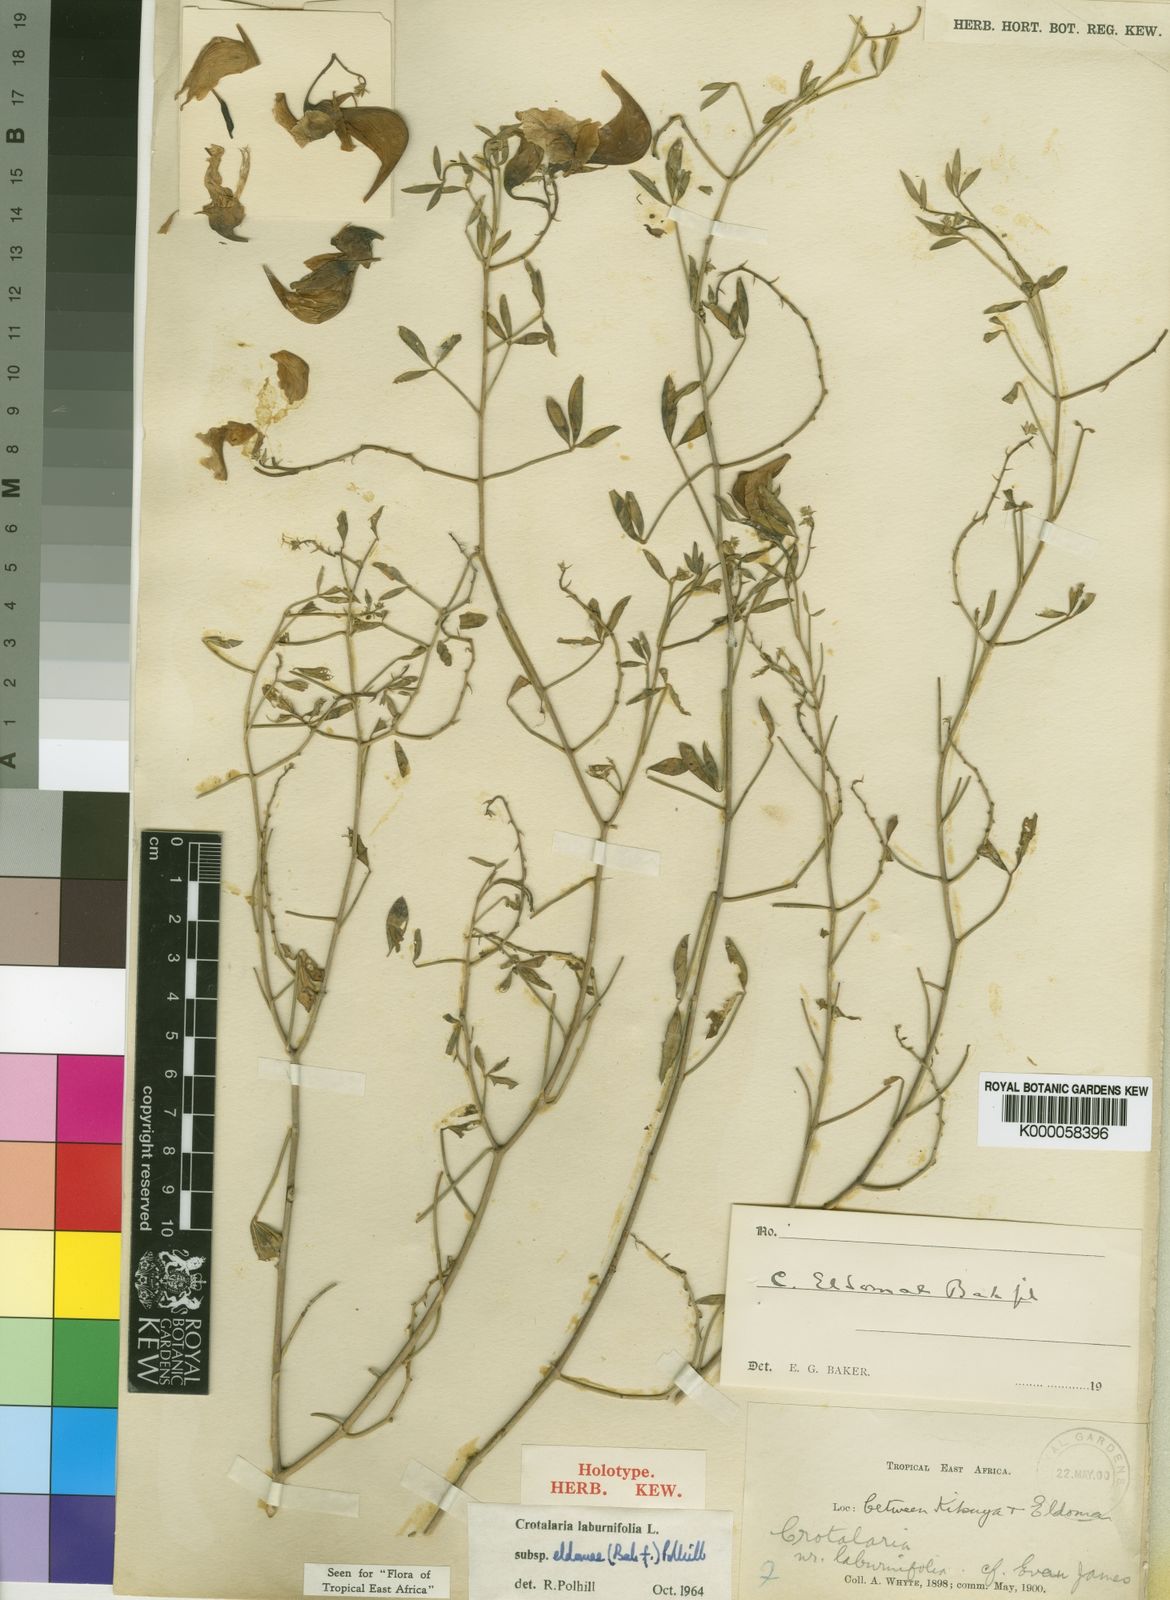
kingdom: Plantae
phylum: Tracheophyta
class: Magnoliopsida
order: Fabales
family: Fabaceae
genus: Crotalaria
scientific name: Crotalaria laburnifolia
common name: Birdflower
